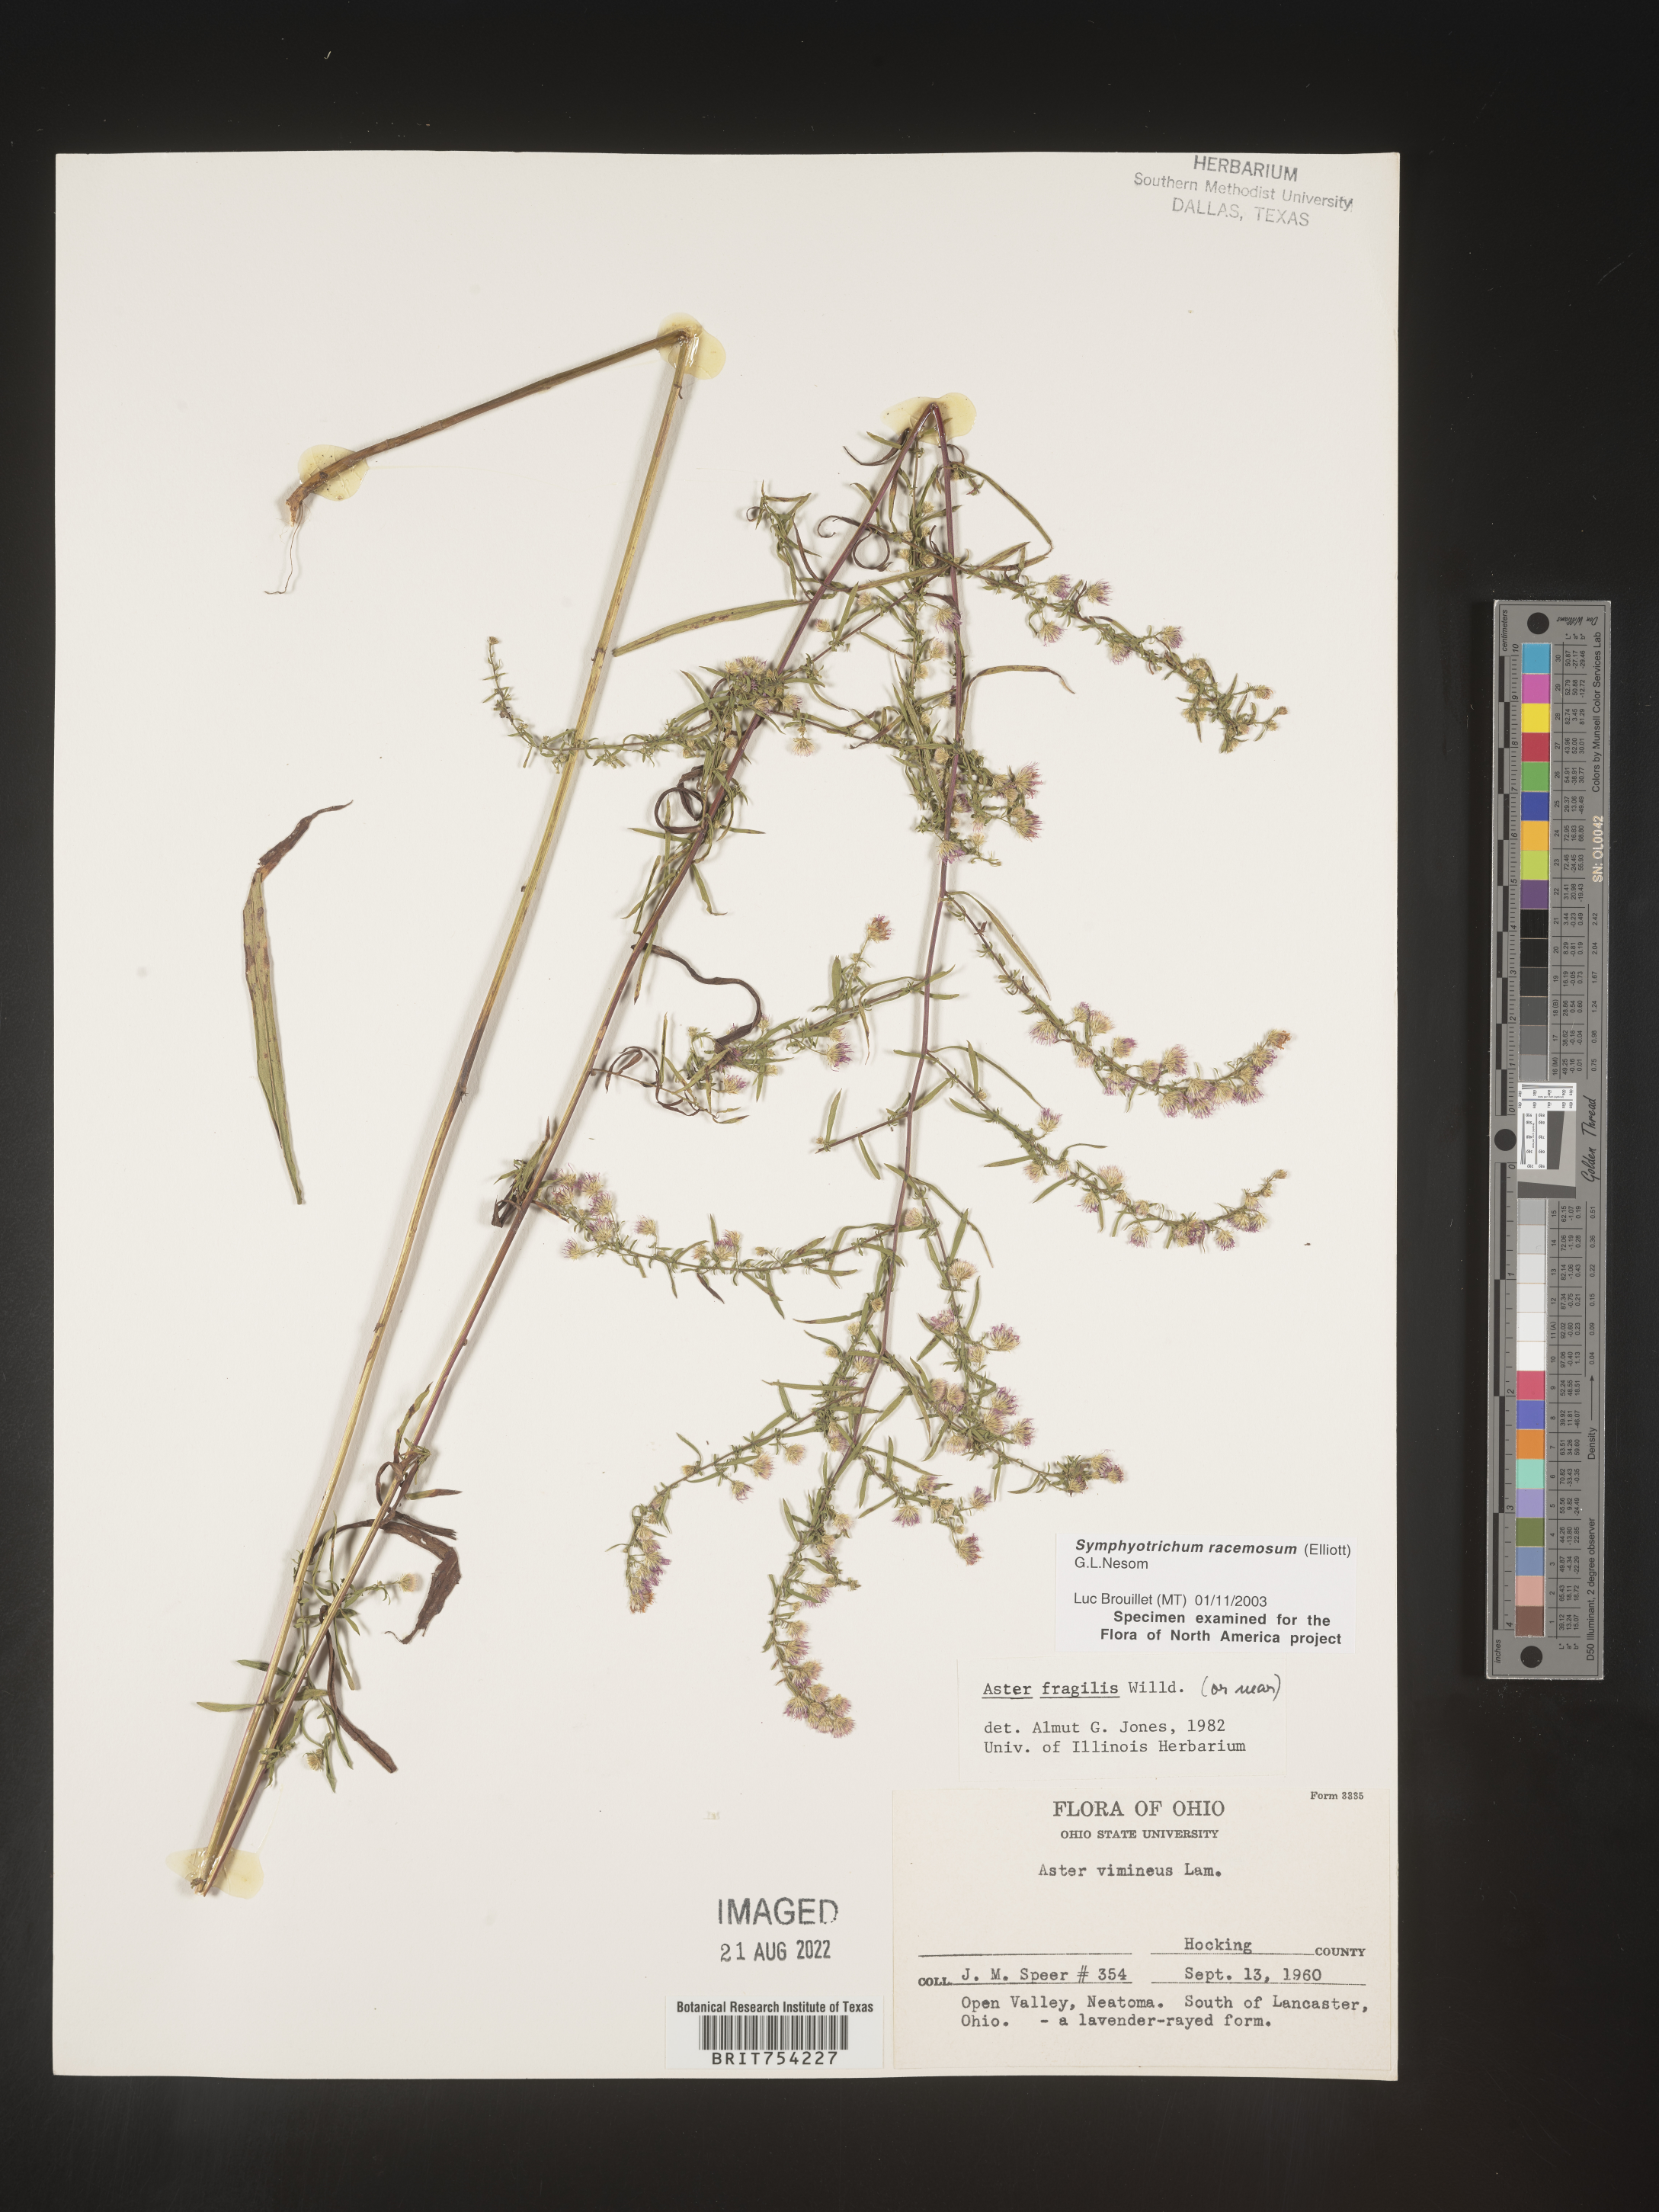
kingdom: Plantae
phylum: Tracheophyta
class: Magnoliopsida
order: Asterales
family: Asteraceae
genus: Symphyotrichum
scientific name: Symphyotrichum racemosum
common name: Small white aster
